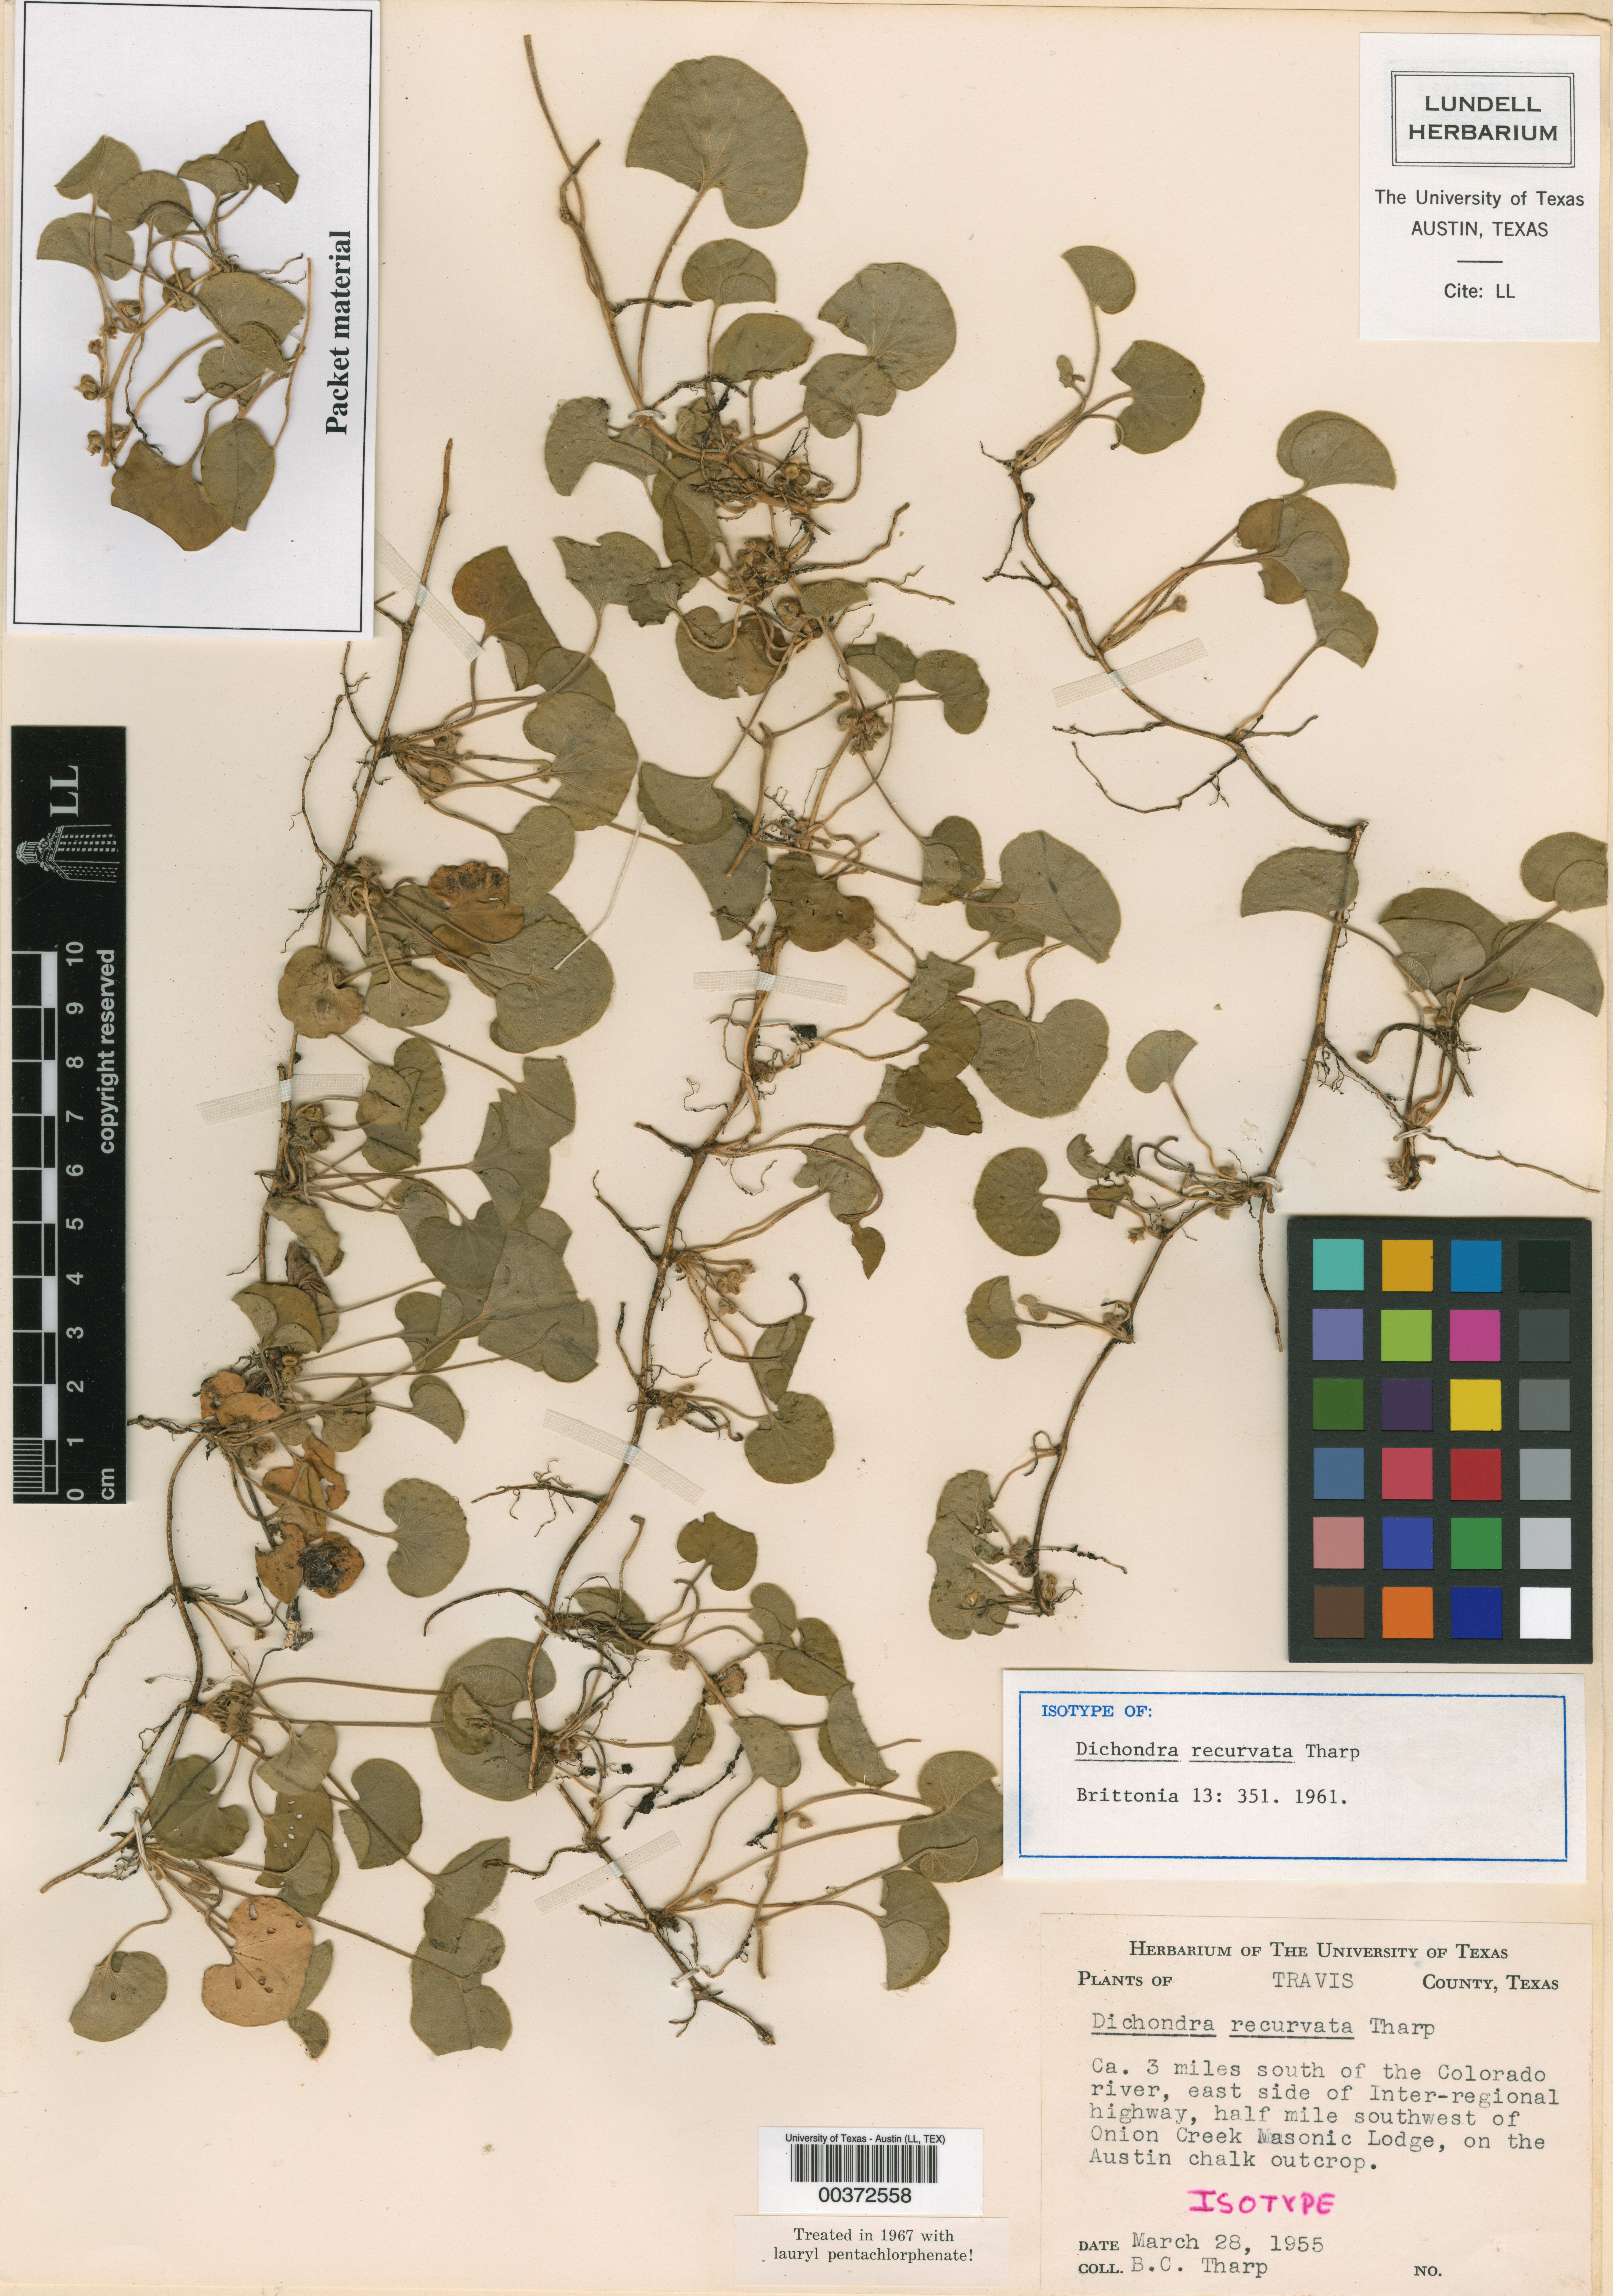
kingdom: Plantae
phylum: Tracheophyta
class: Magnoliopsida
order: Solanales
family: Convolvulaceae
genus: Dichondra
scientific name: Dichondra recurvata
